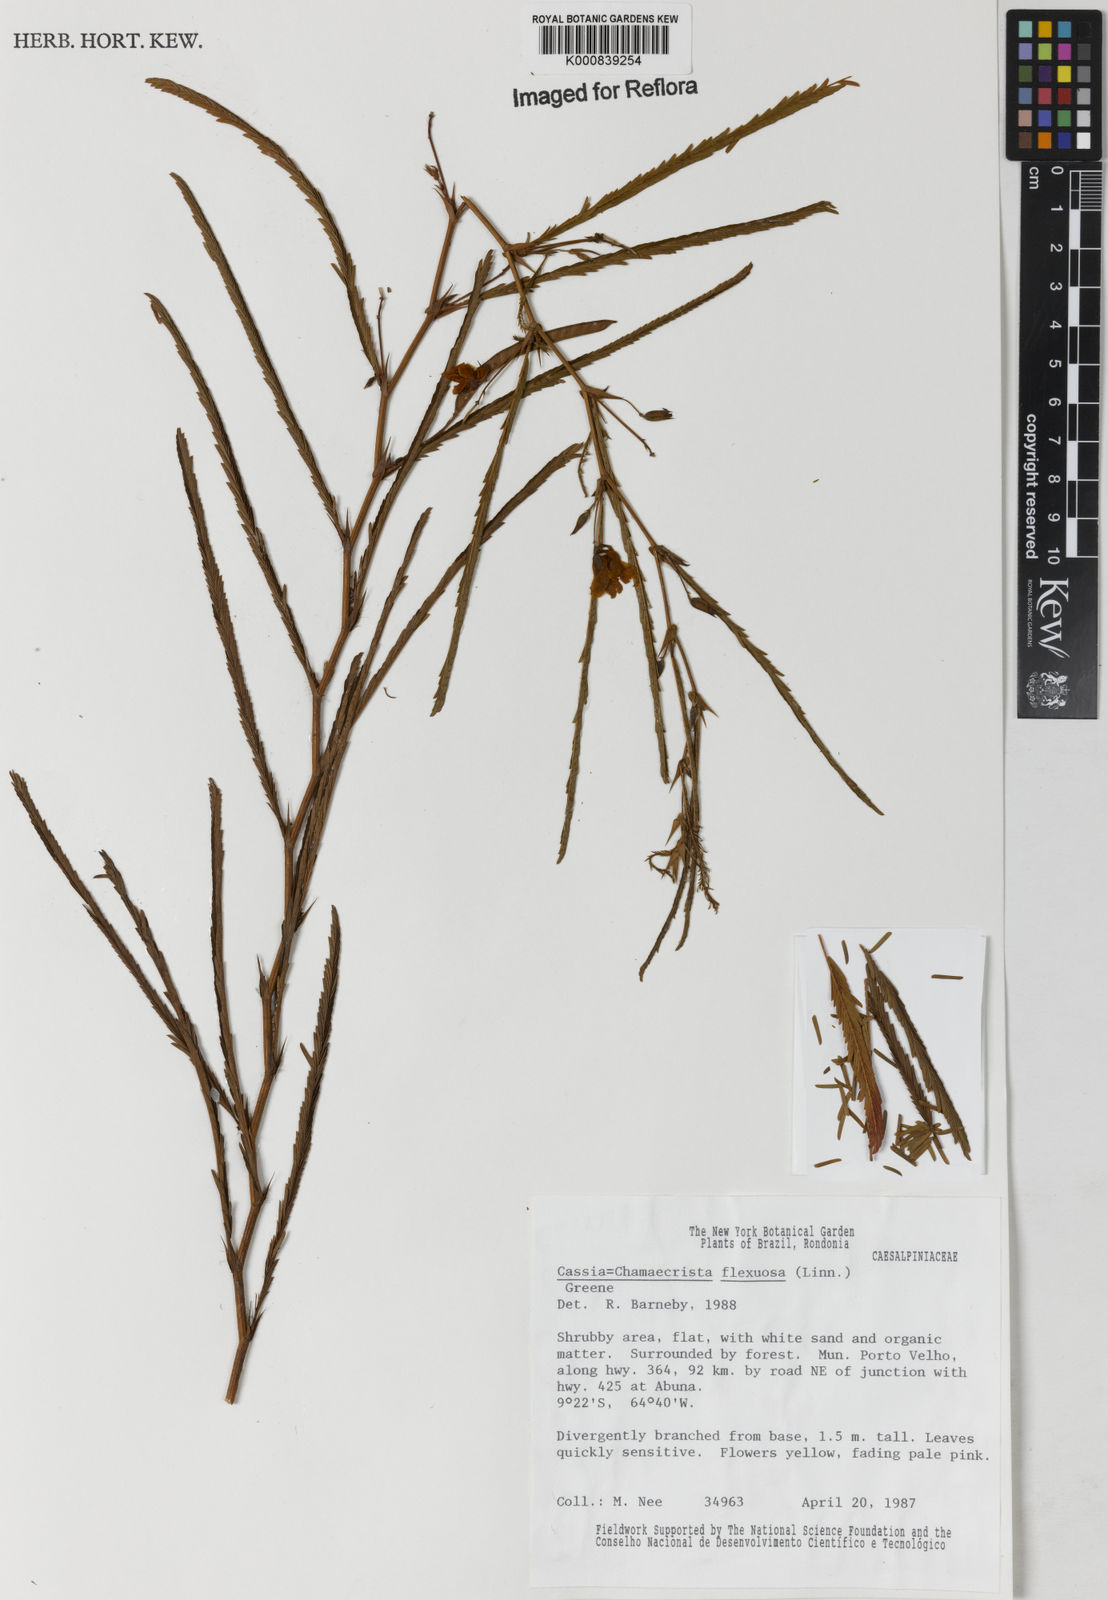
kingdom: Plantae
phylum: Tracheophyta
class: Magnoliopsida
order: Fabales
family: Fabaceae
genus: Chamaecrista
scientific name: Chamaecrista flexuosa
